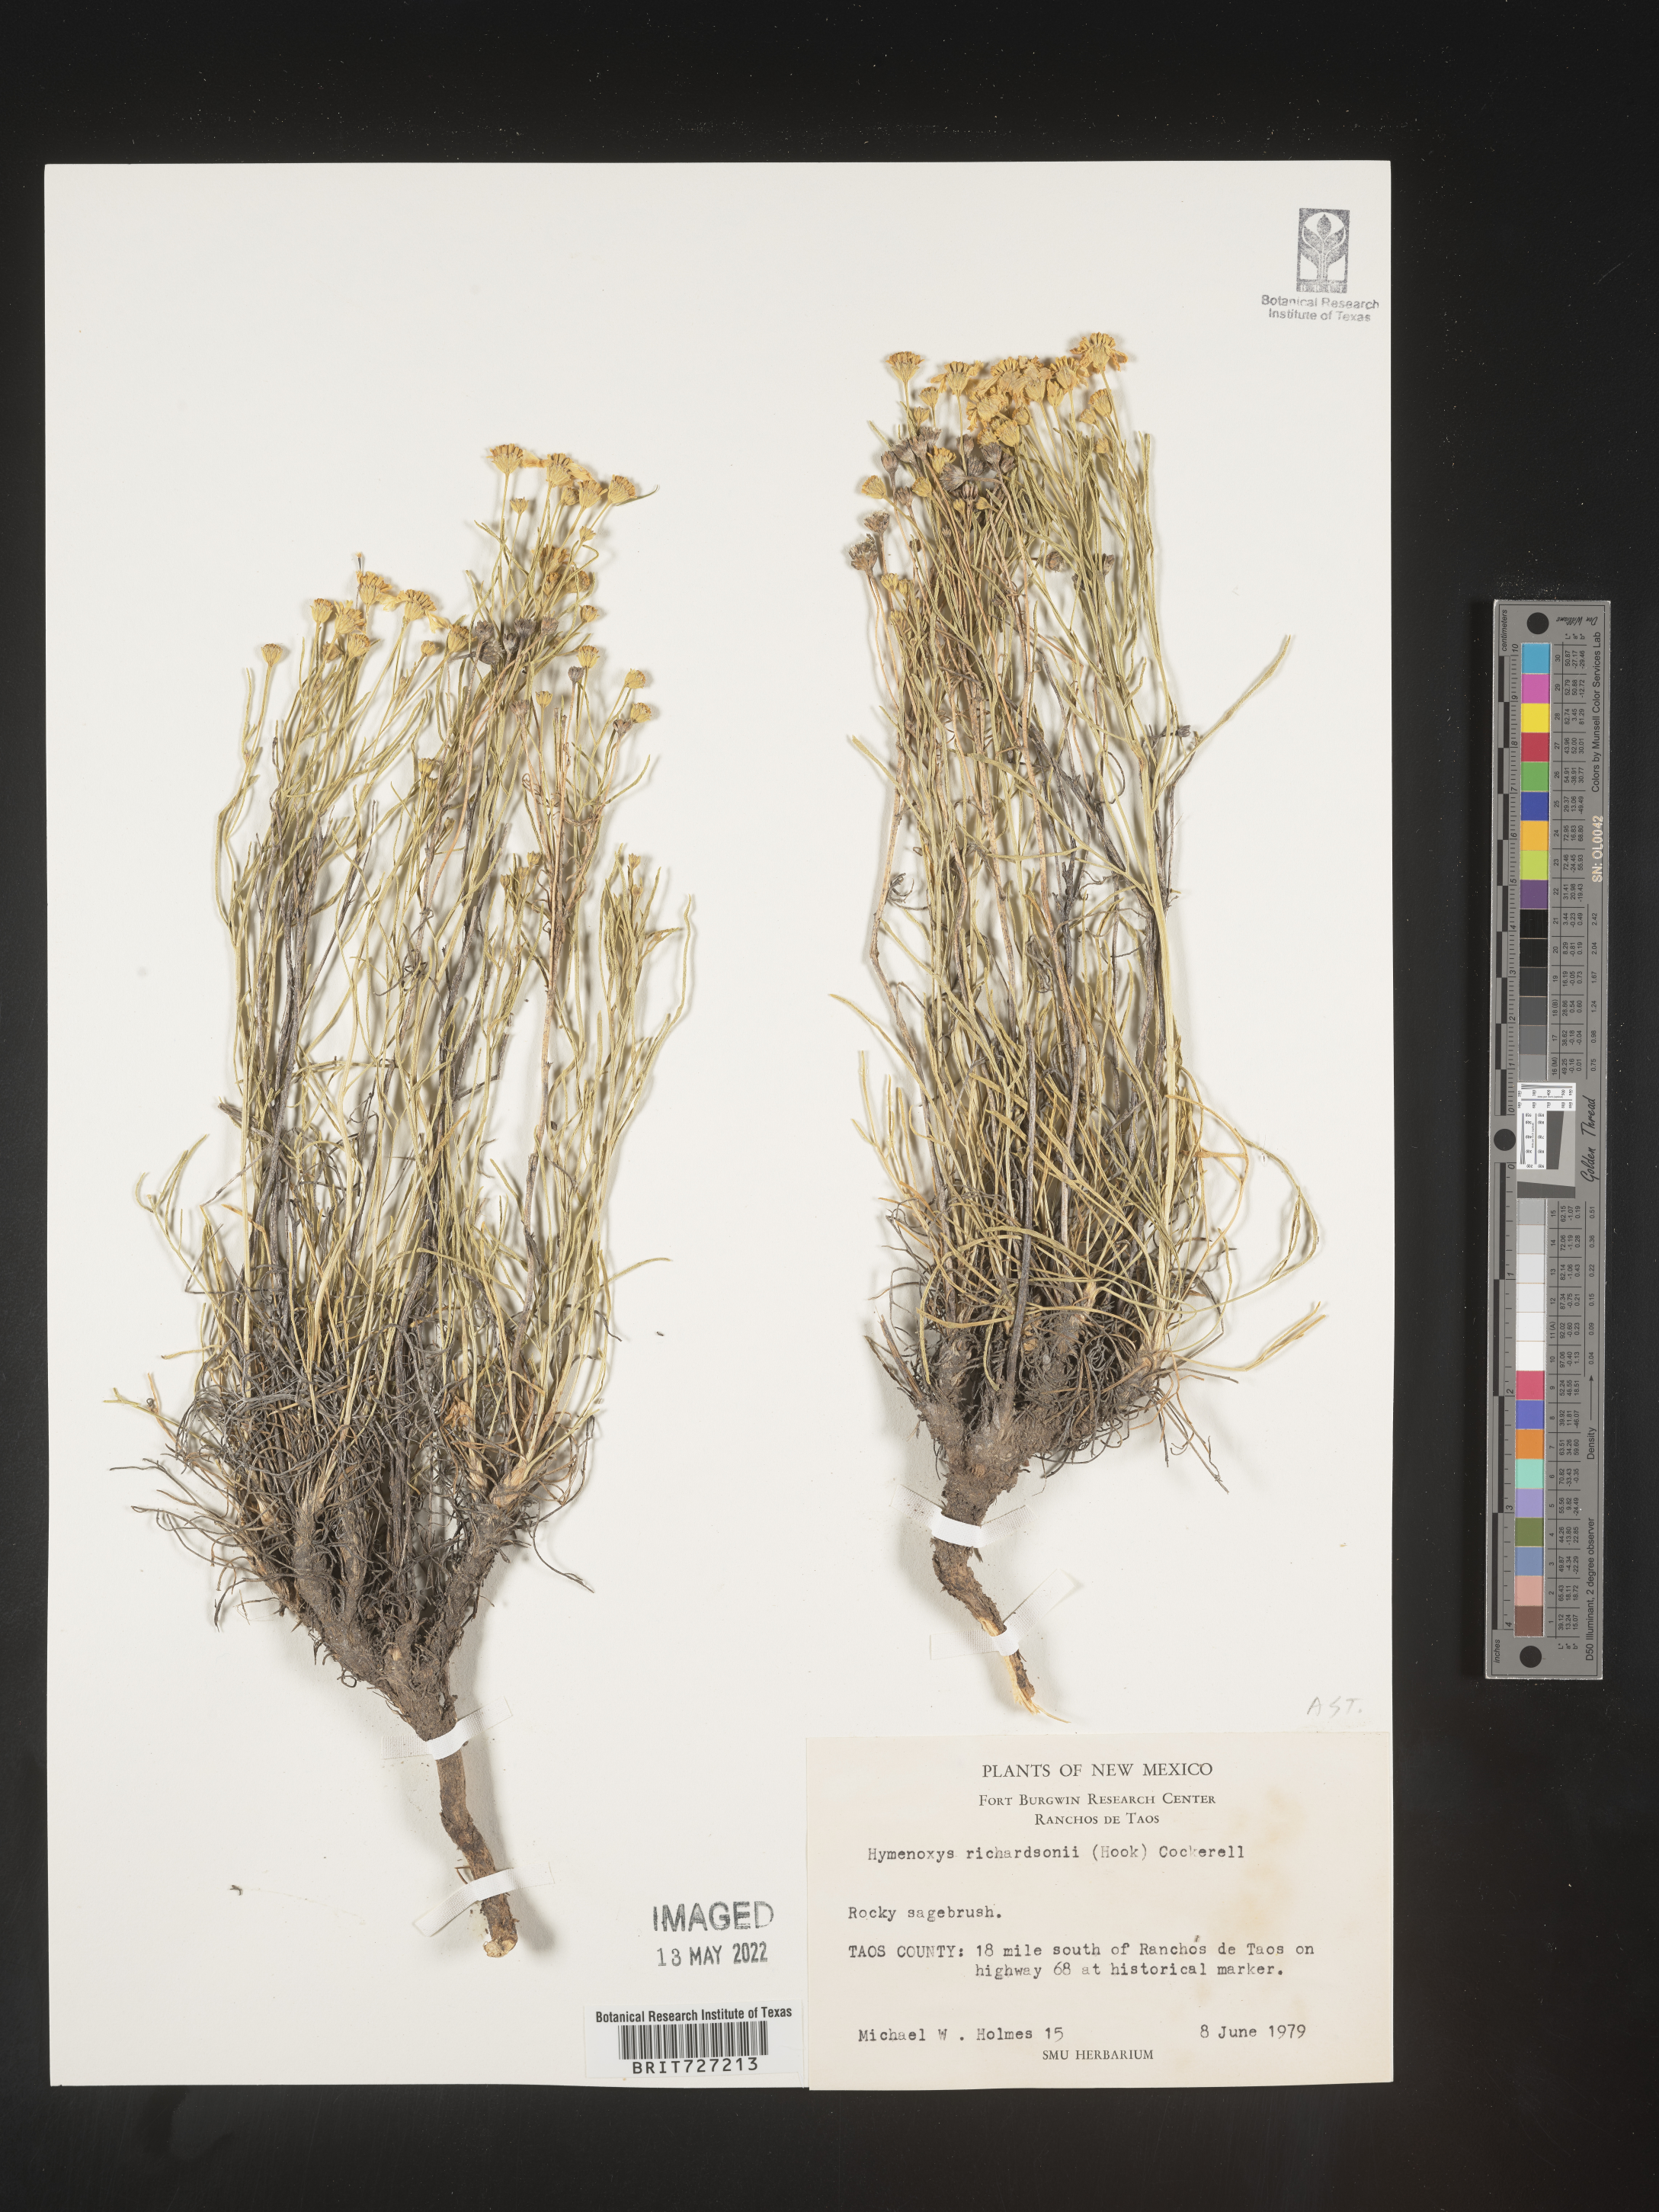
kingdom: Plantae
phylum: Tracheophyta
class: Magnoliopsida
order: Asterales
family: Asteraceae
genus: Hymenoxys
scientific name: Hymenoxys richardsonii
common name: Pingue rubberweed
